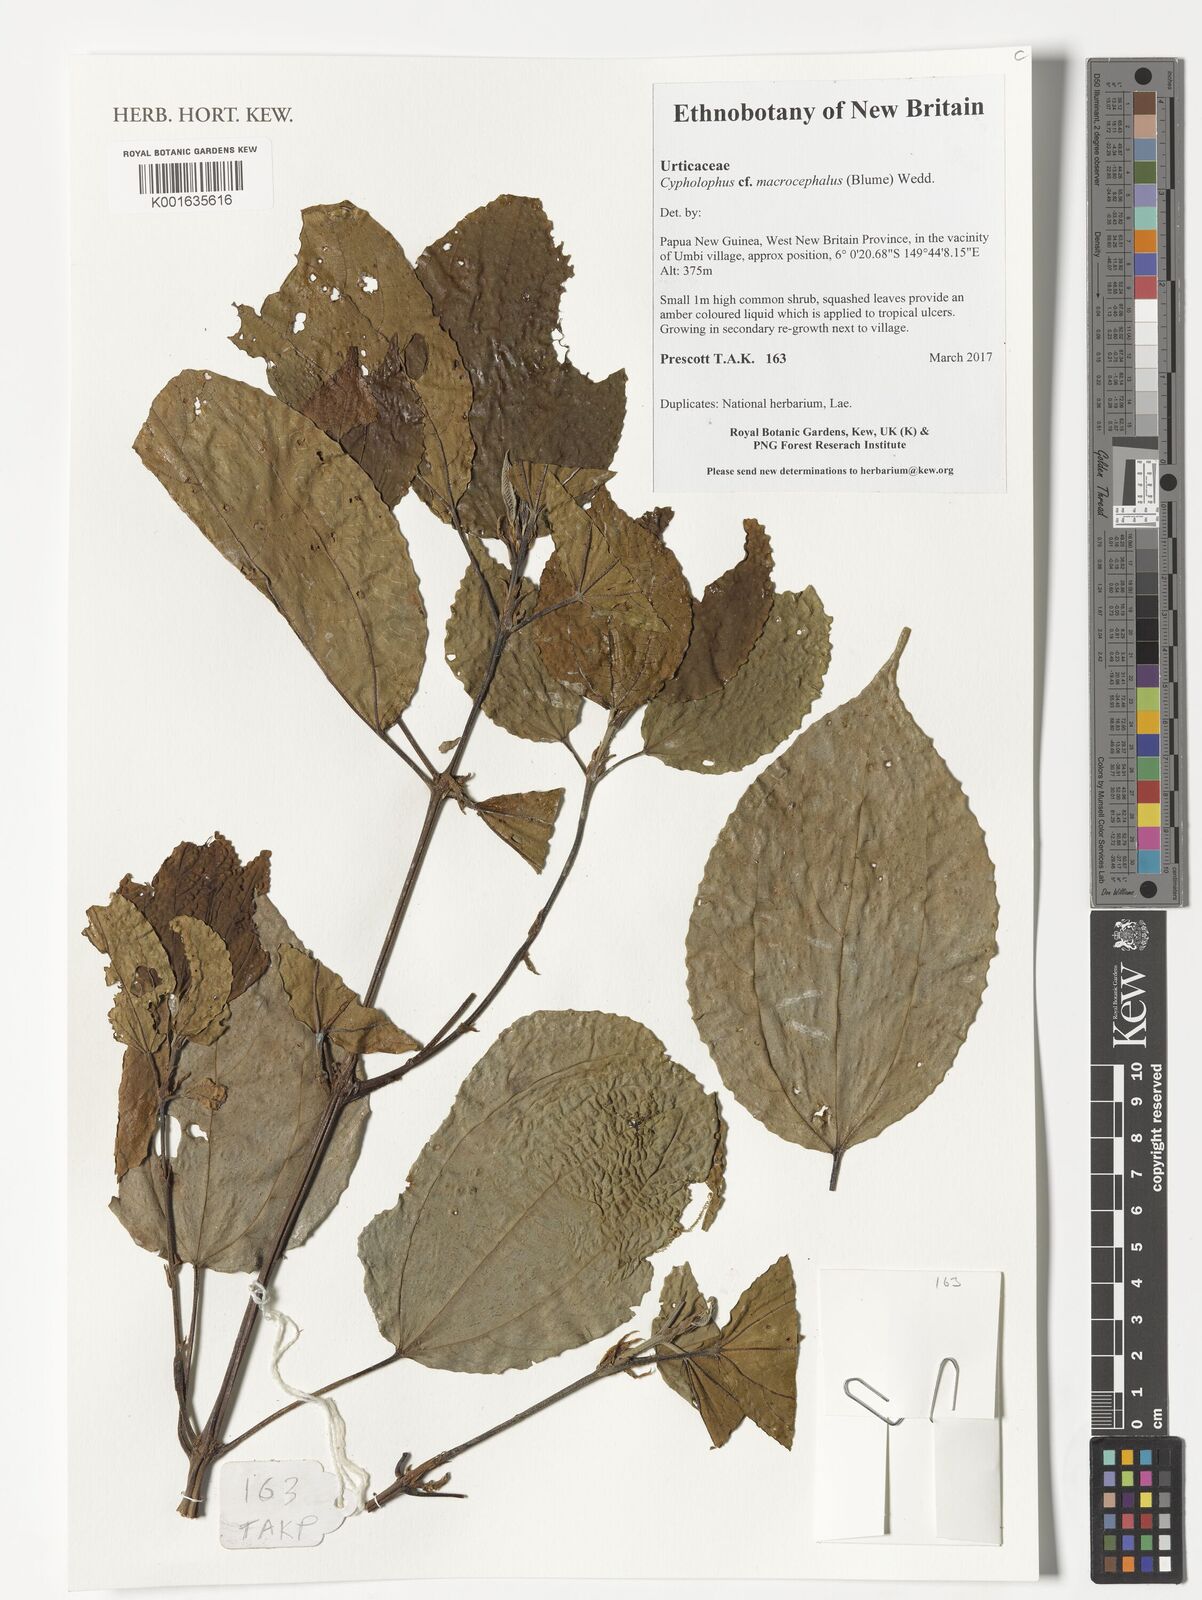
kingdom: Plantae
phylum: Tracheophyta
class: Magnoliopsida
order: Rosales
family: Urticaceae
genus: Cypholophus
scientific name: Cypholophus macrocephalus
